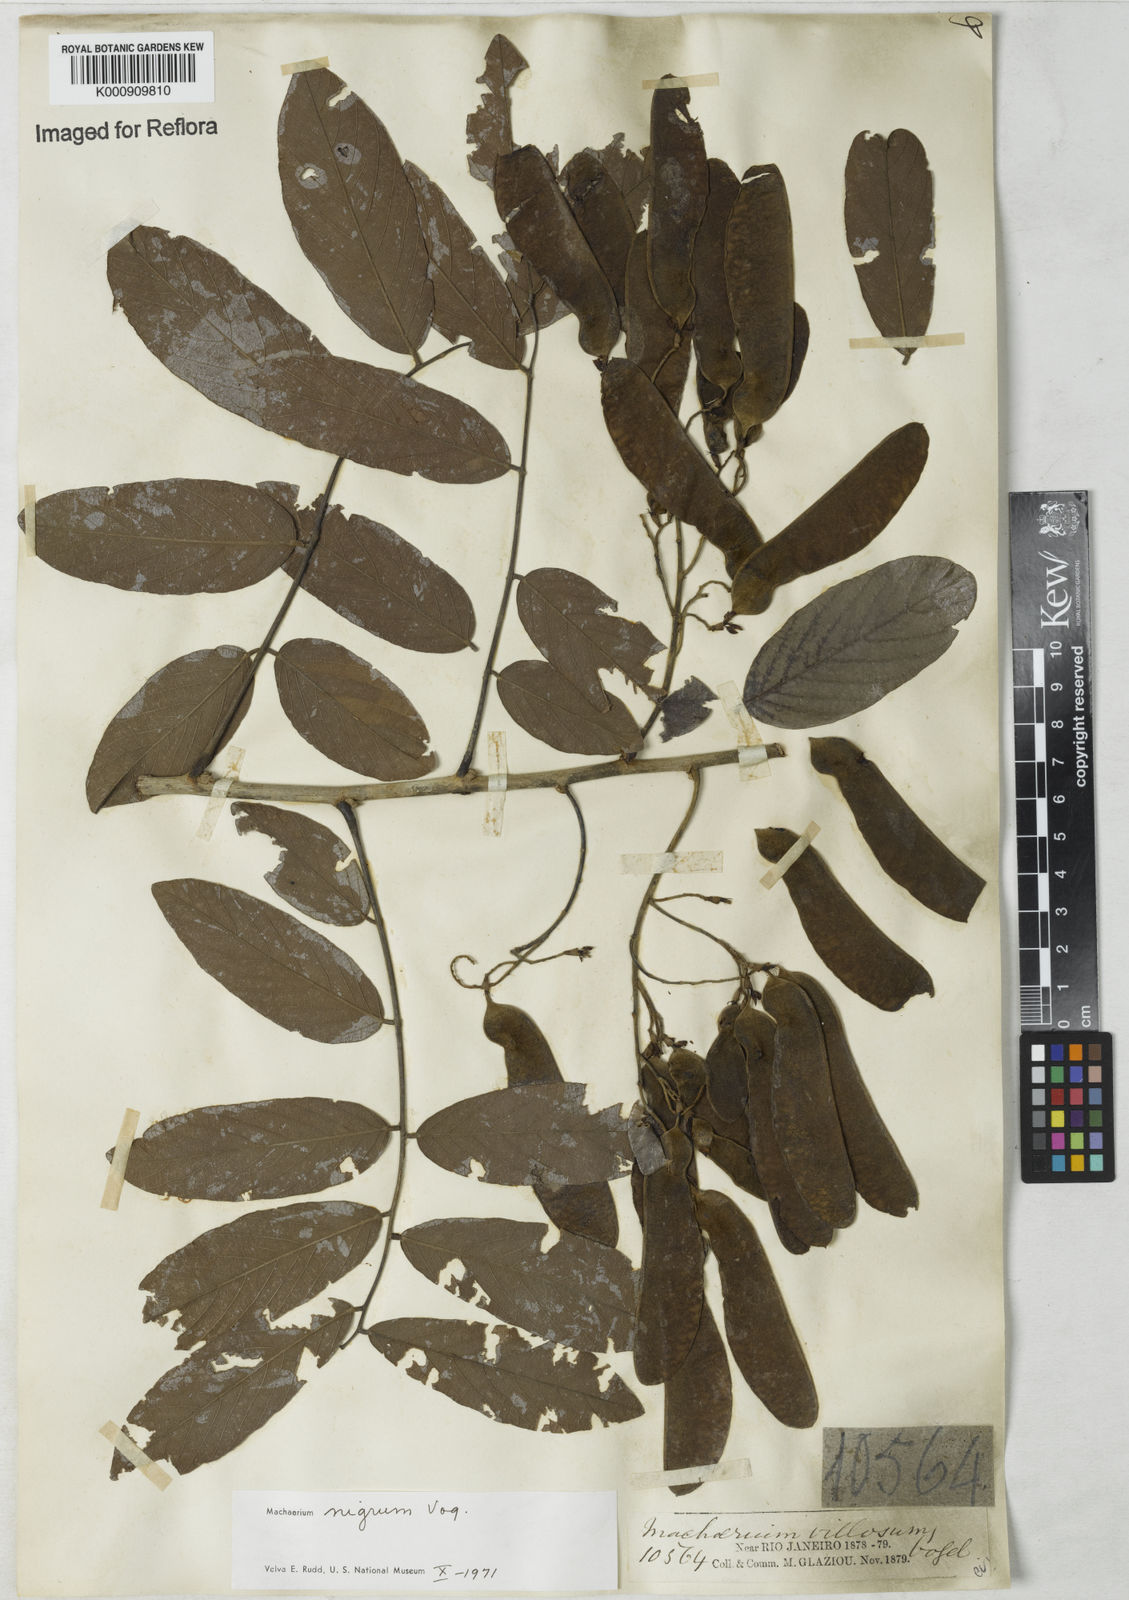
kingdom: Plantae
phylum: Tracheophyta
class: Magnoliopsida
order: Fabales
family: Fabaceae
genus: Machaerium
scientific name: Machaerium nigrum
